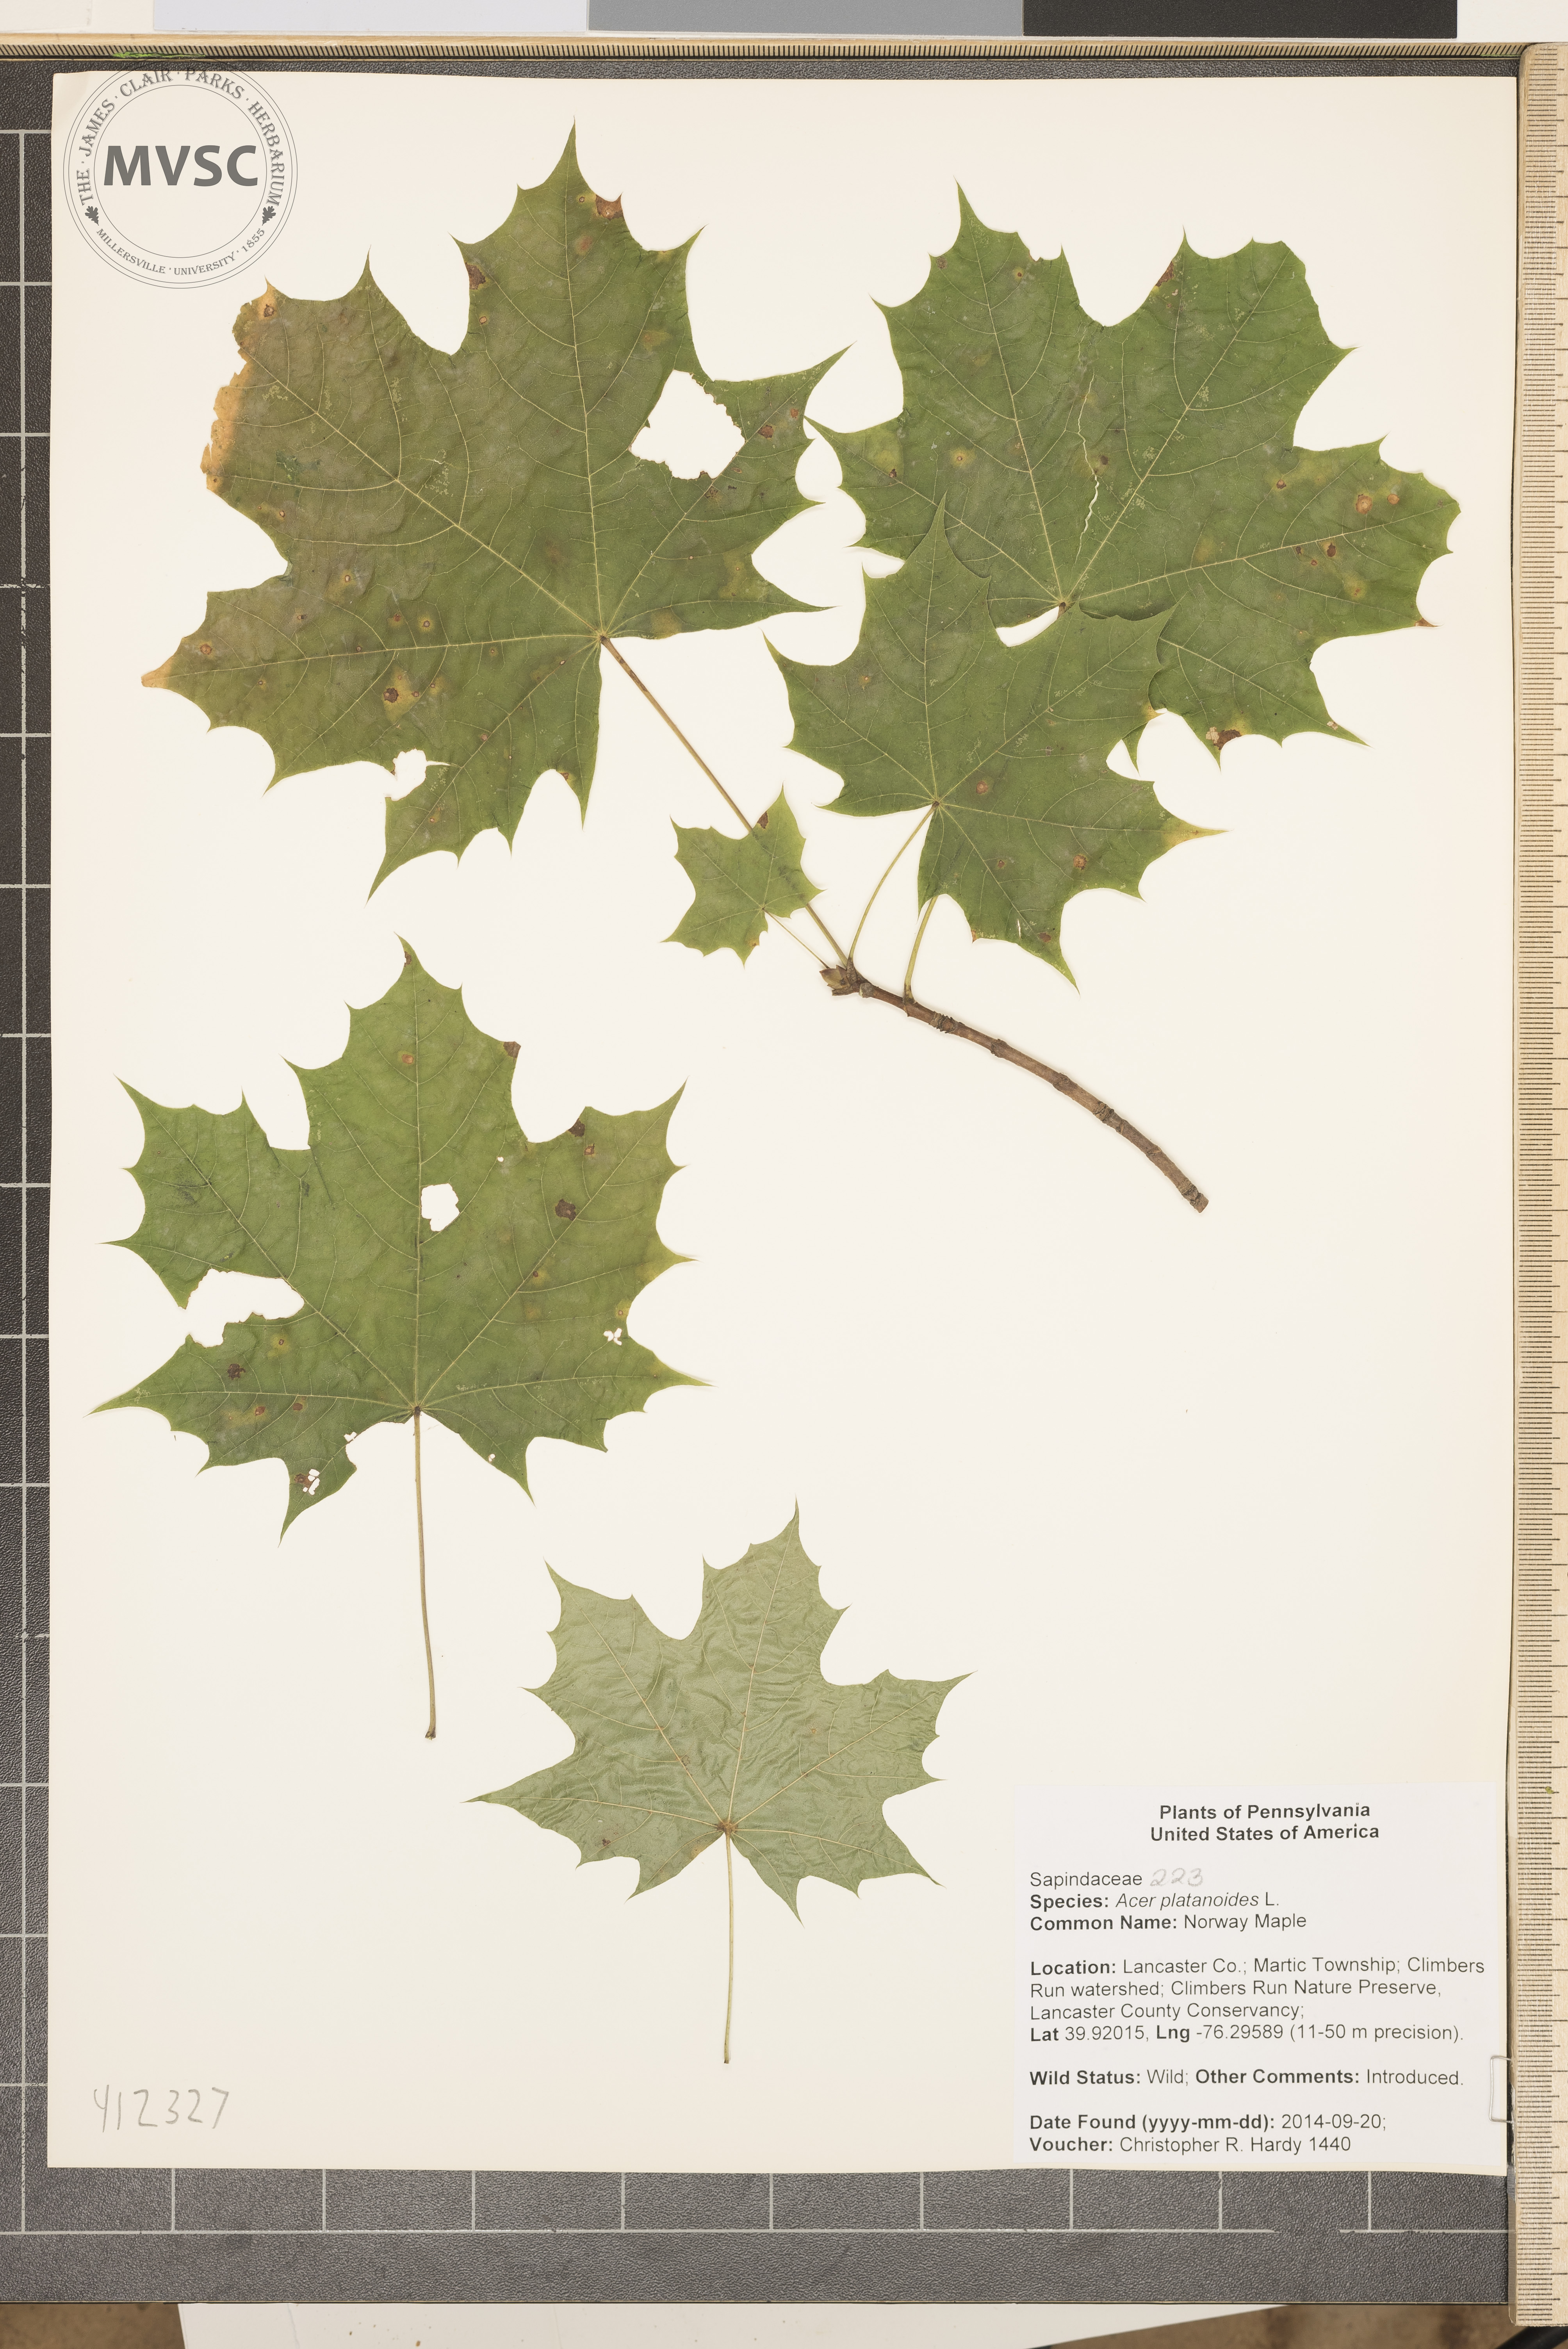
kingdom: Plantae
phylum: Tracheophyta
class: Magnoliopsida
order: Sapindales
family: Sapindaceae
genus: Acer
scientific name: Acer platanoides
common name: Norway maple
